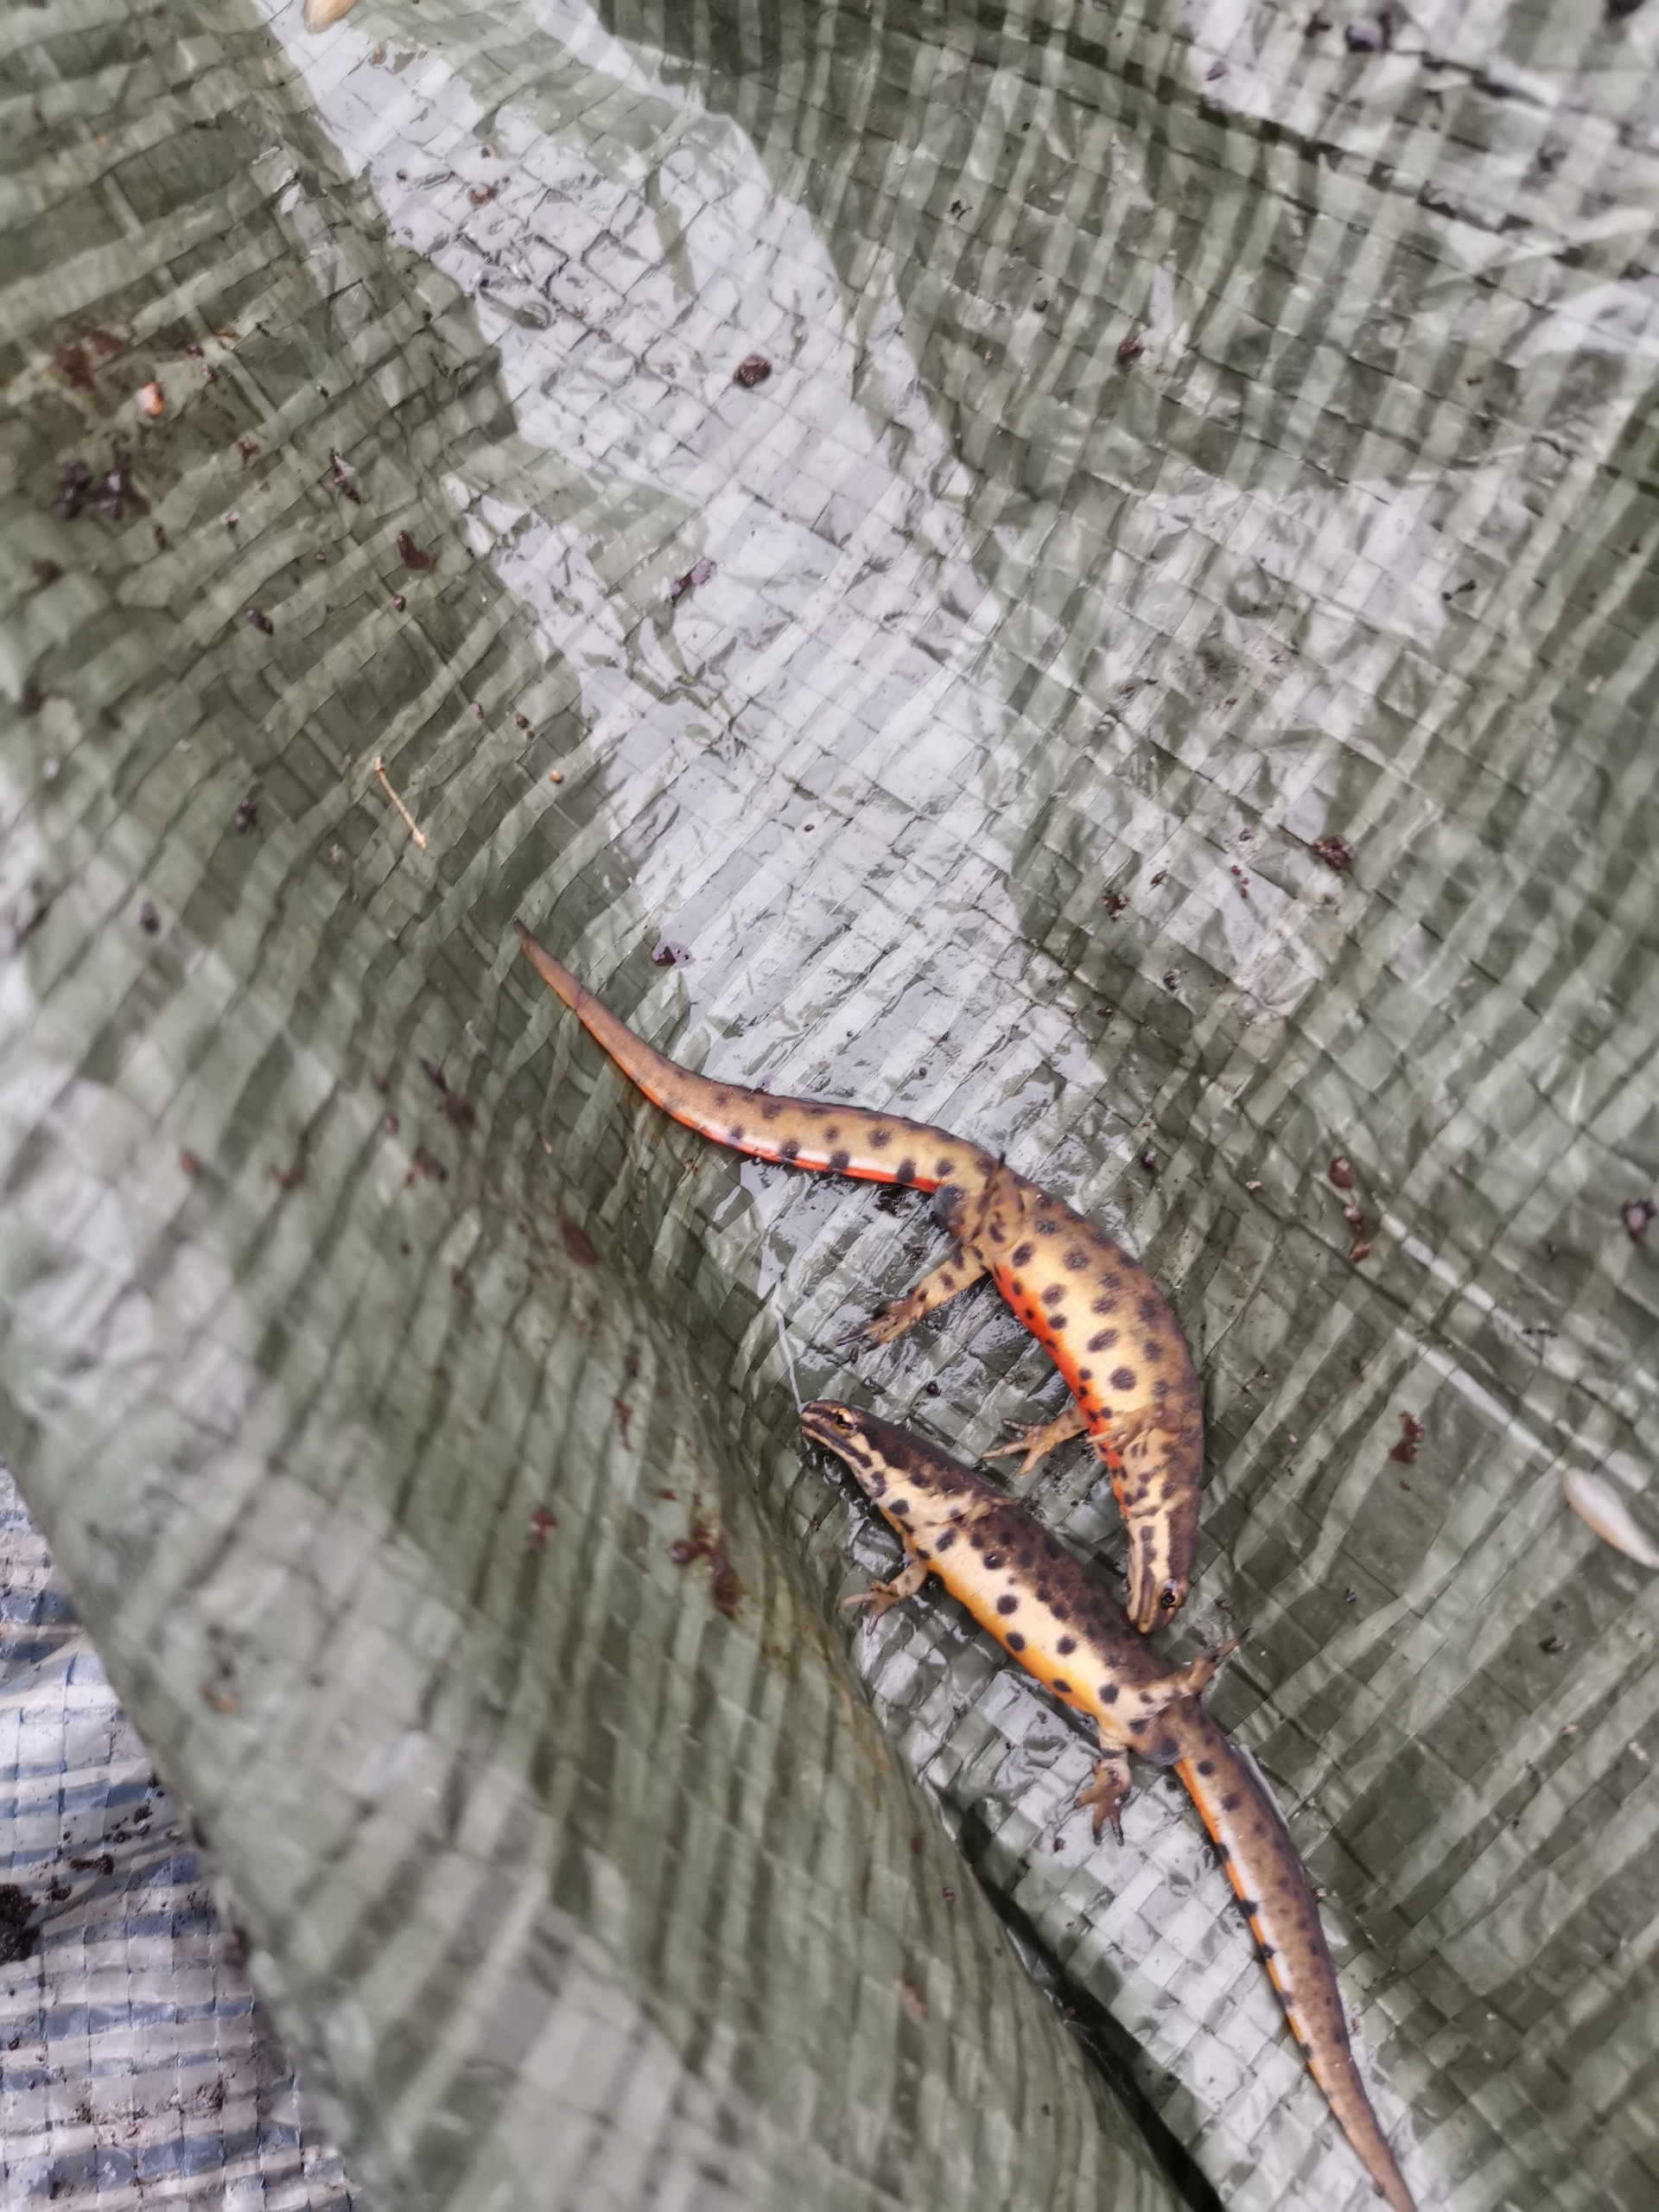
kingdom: Animalia
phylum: Chordata
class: Amphibia
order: Caudata
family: Salamandridae
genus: Lissotriton
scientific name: Lissotriton vulgaris
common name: Lille vandsalamander
